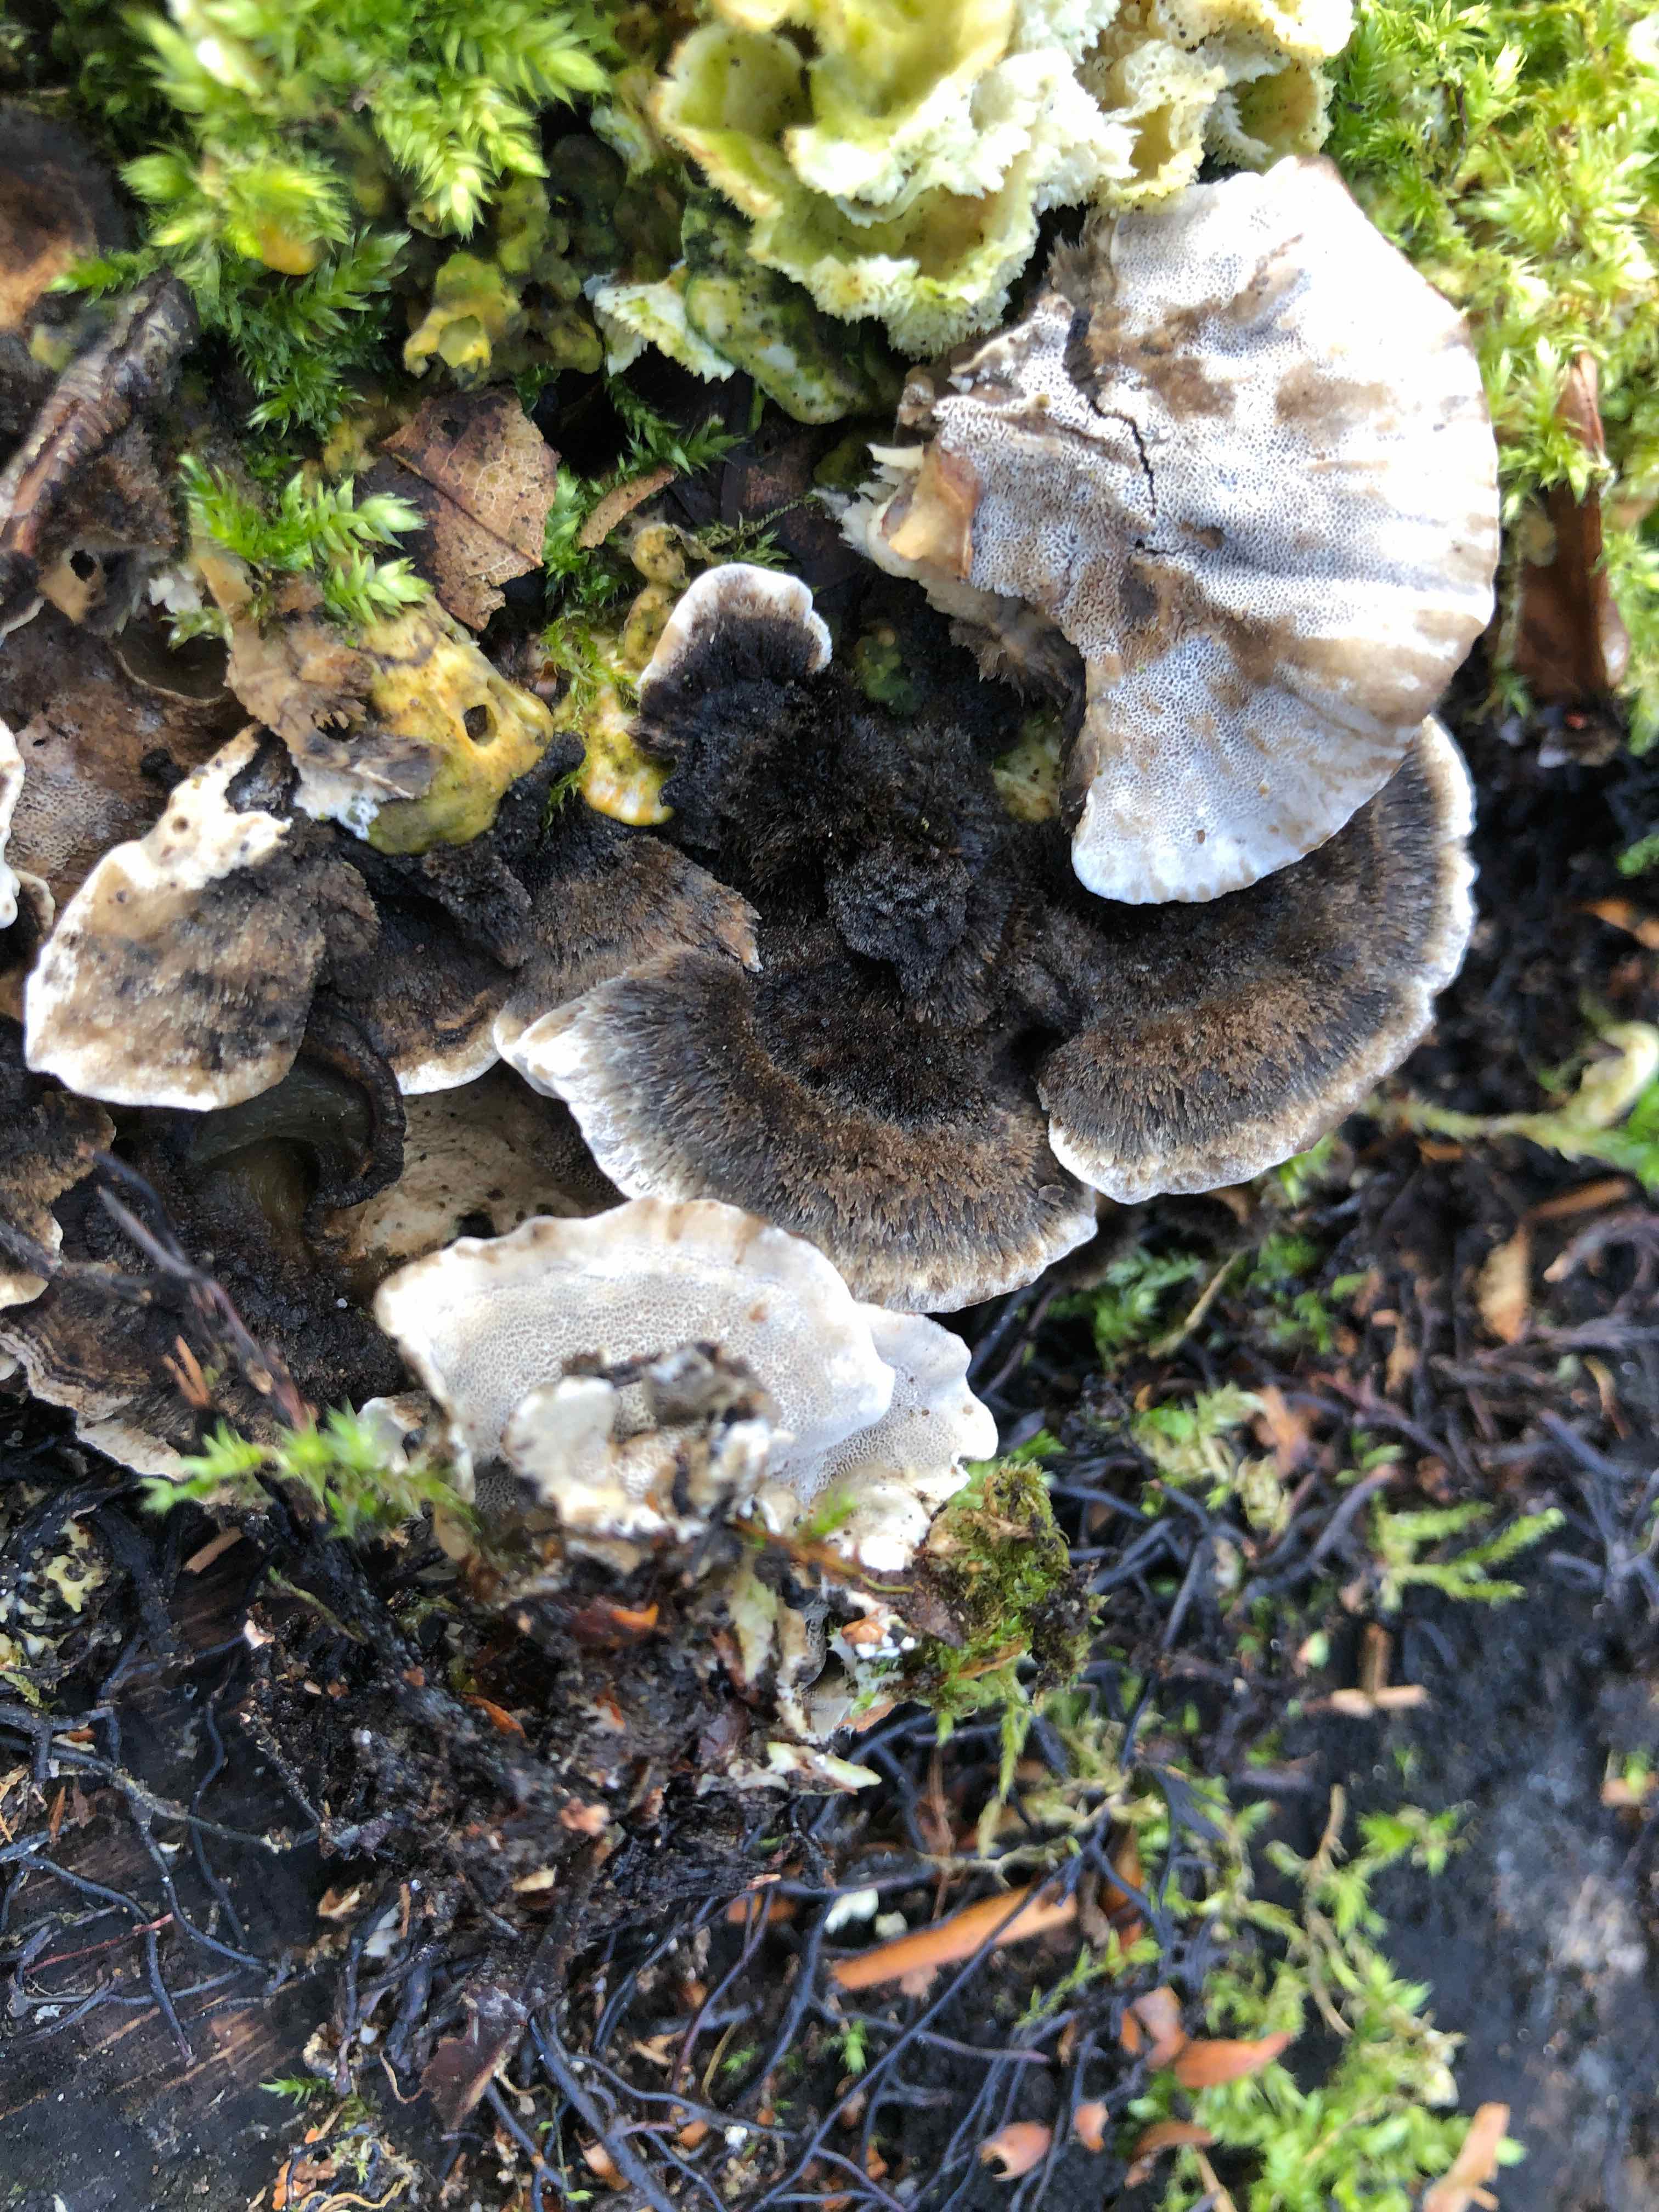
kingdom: Fungi
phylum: Basidiomycota
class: Agaricomycetes
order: Polyporales
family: Phanerochaetaceae
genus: Bjerkandera
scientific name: Bjerkandera adusta
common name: sveden sodporesvamp
